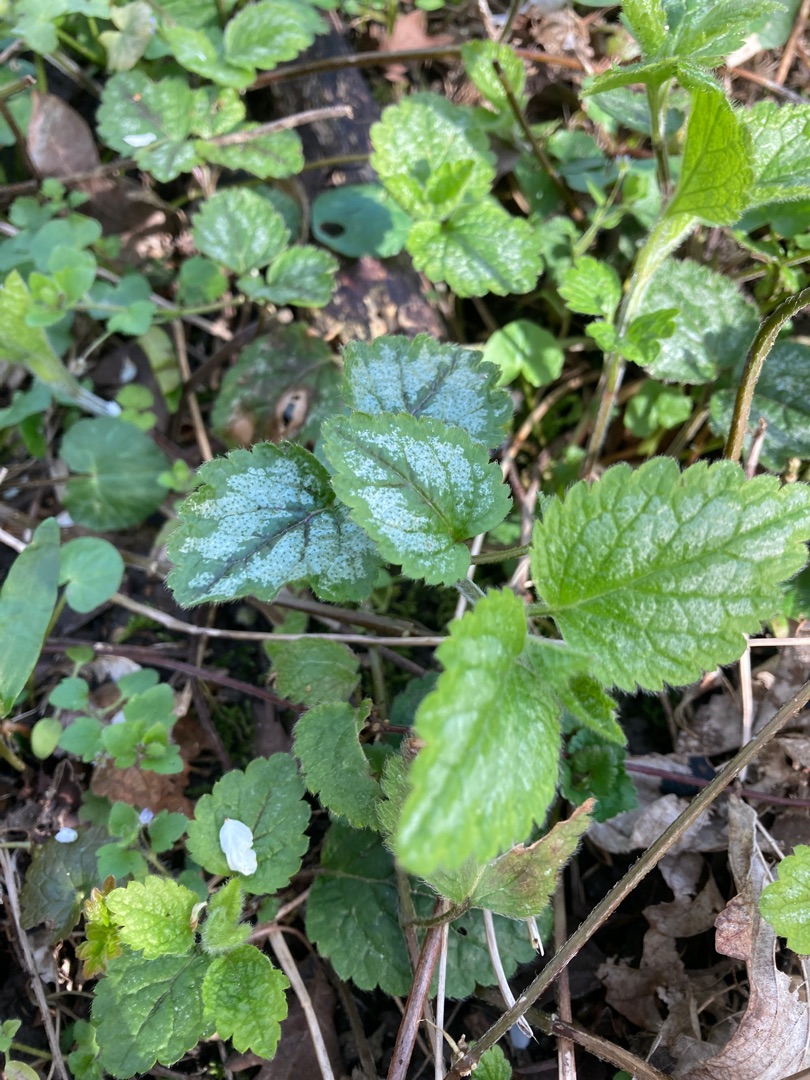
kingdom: Plantae
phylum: Tracheophyta
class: Magnoliopsida
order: Lamiales
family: Lamiaceae
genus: Lamium
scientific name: Lamium galeobdolon
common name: Have-guldnælde
